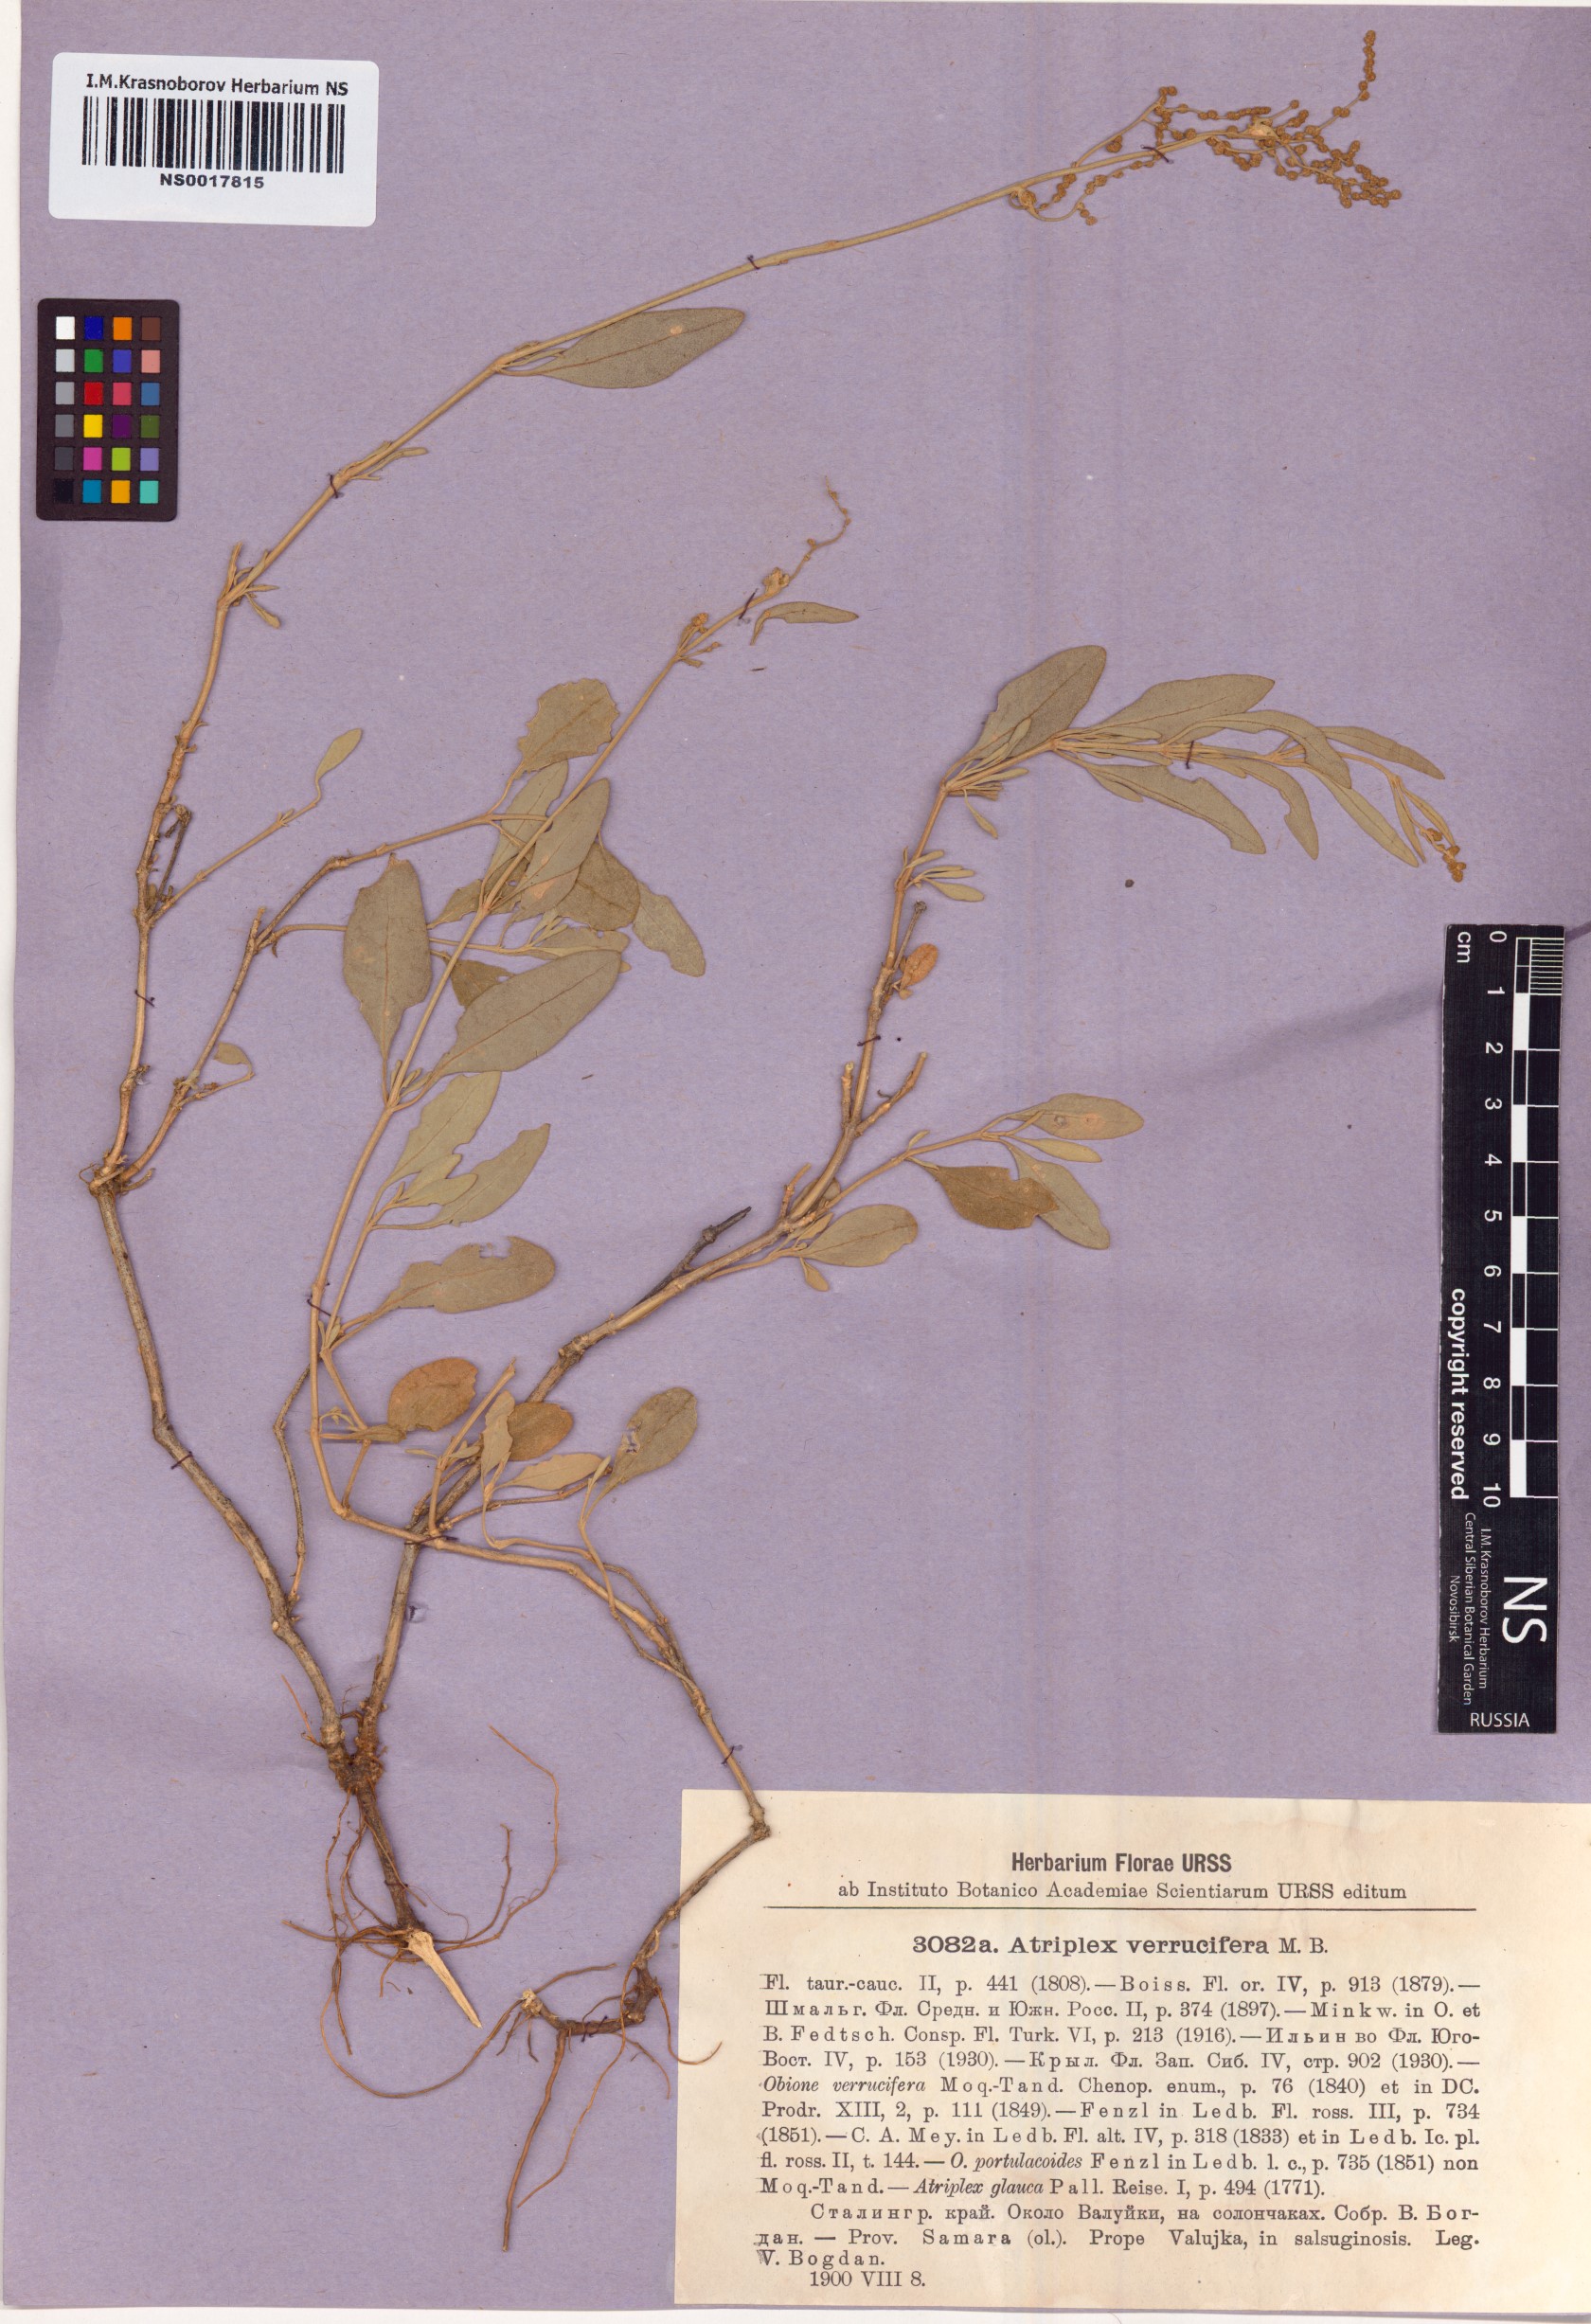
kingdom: Plantae
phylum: Tracheophyta
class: Magnoliopsida
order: Caryophyllales
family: Amaranthaceae
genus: Halimione
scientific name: Halimione verrucifera
